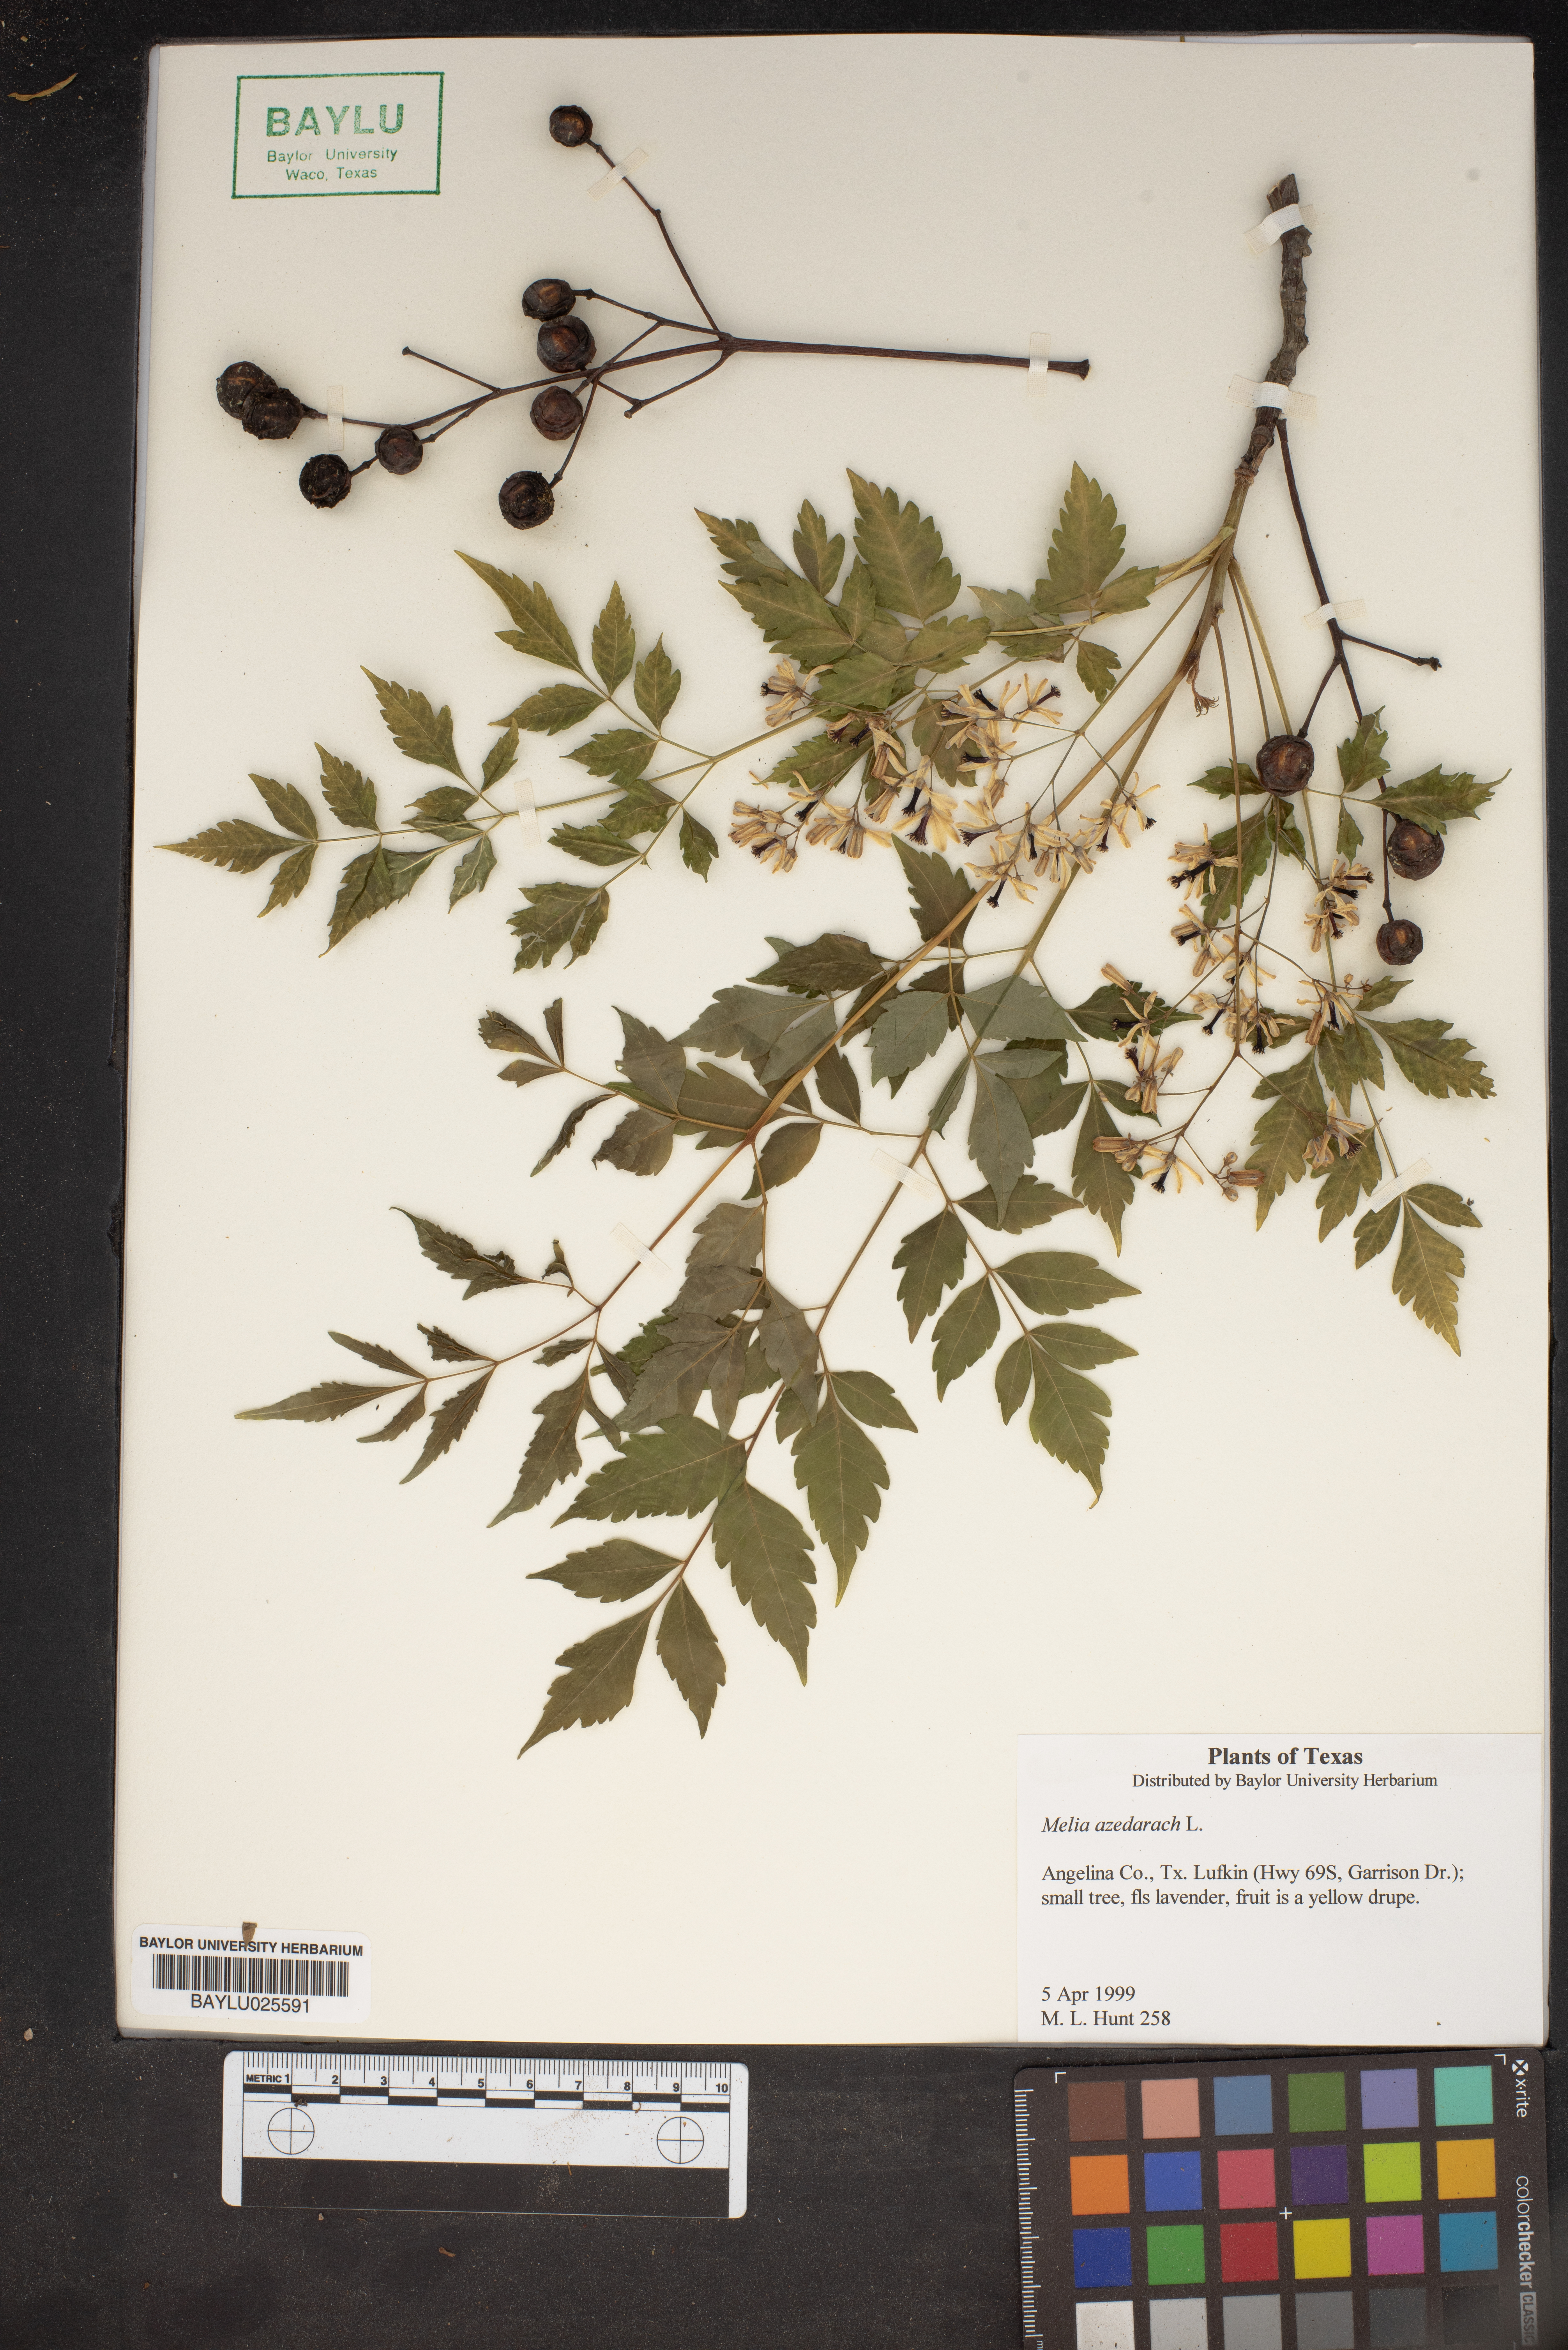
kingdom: Plantae
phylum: Tracheophyta
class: Magnoliopsida
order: Sapindales
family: Meliaceae
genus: Melia
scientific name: Melia azedarach
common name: Chinaberrytree
